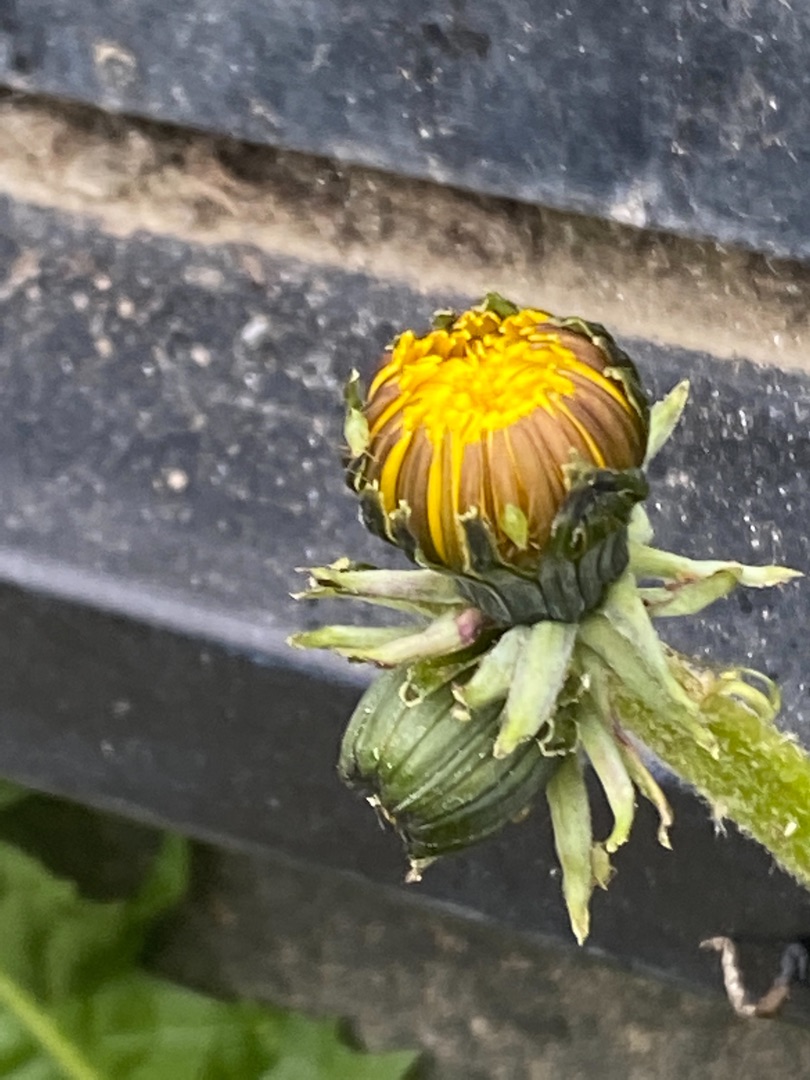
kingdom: Plantae
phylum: Tracheophyta
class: Magnoliopsida
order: Asterales
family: Asteraceae
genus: Taraxacum
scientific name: Taraxacum
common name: Mælkebøtteslægten
